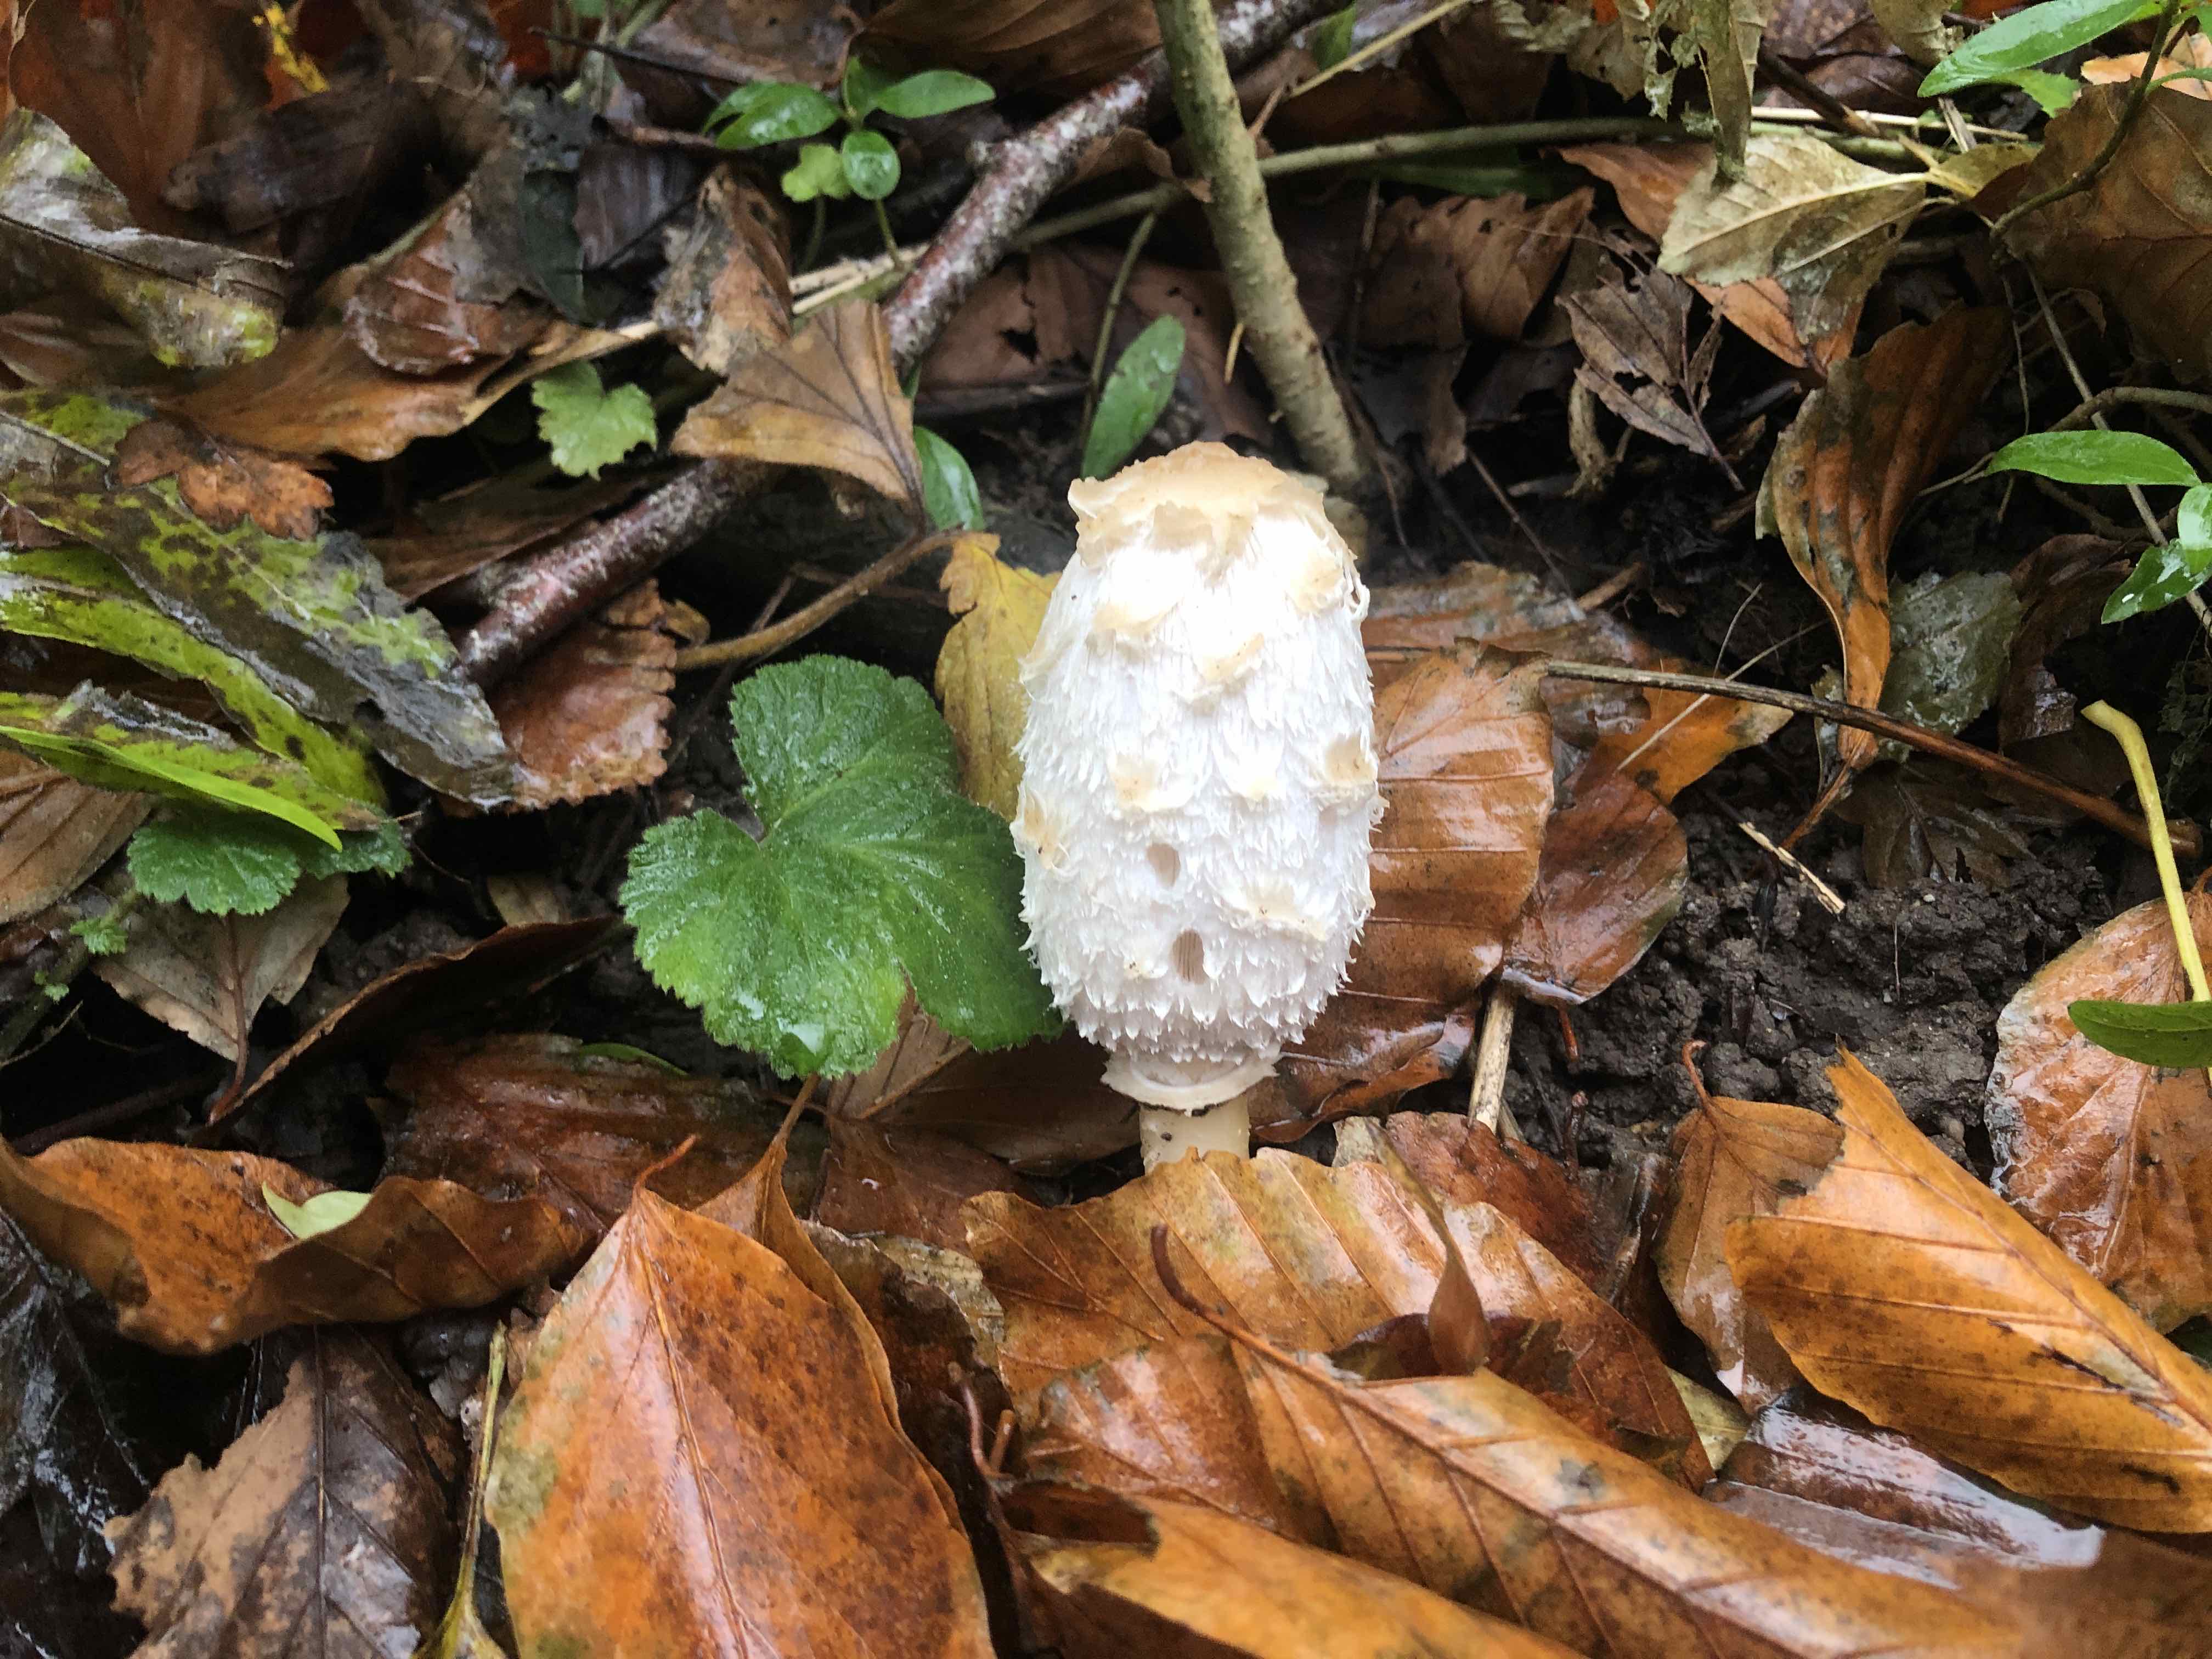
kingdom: Fungi
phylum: Basidiomycota
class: Agaricomycetes
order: Agaricales
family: Agaricaceae
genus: Coprinus
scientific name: Coprinus comatus
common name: stor parykhat
